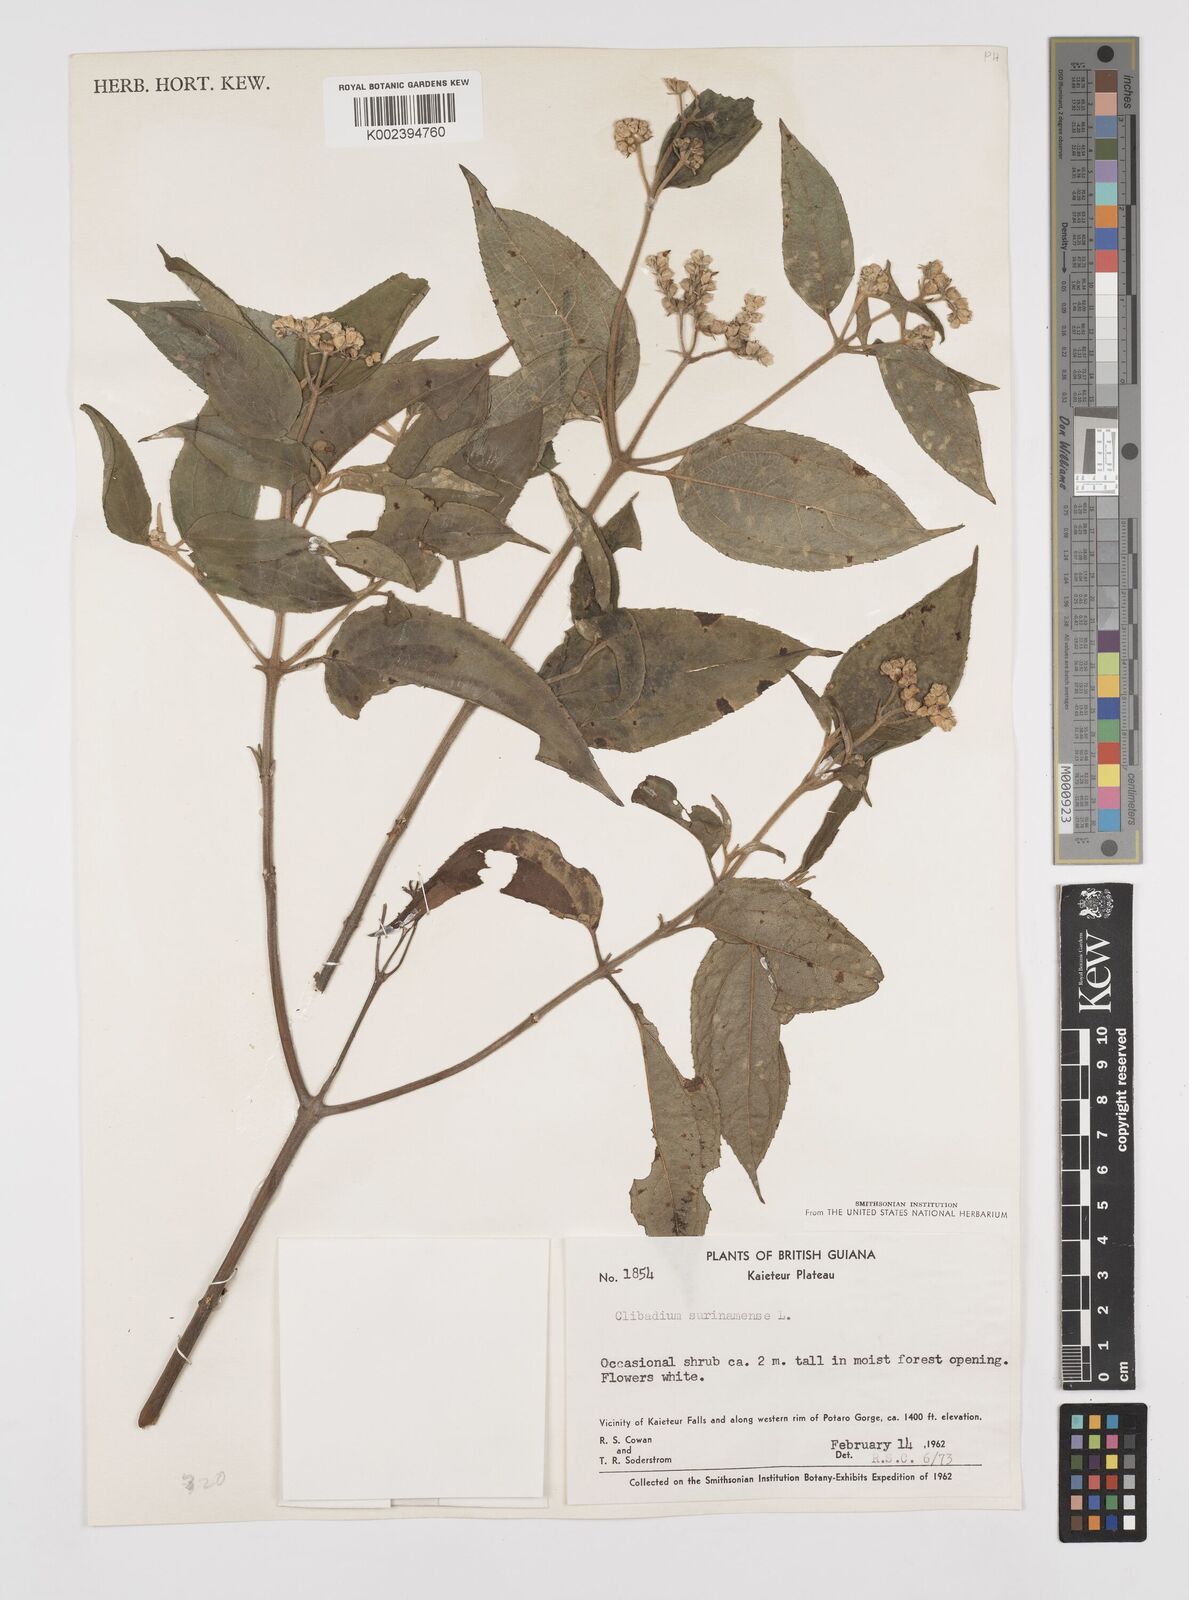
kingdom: Plantae
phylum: Tracheophyta
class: Magnoliopsida
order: Asterales
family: Asteraceae
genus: Clibadium
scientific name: Clibadium surinamense
